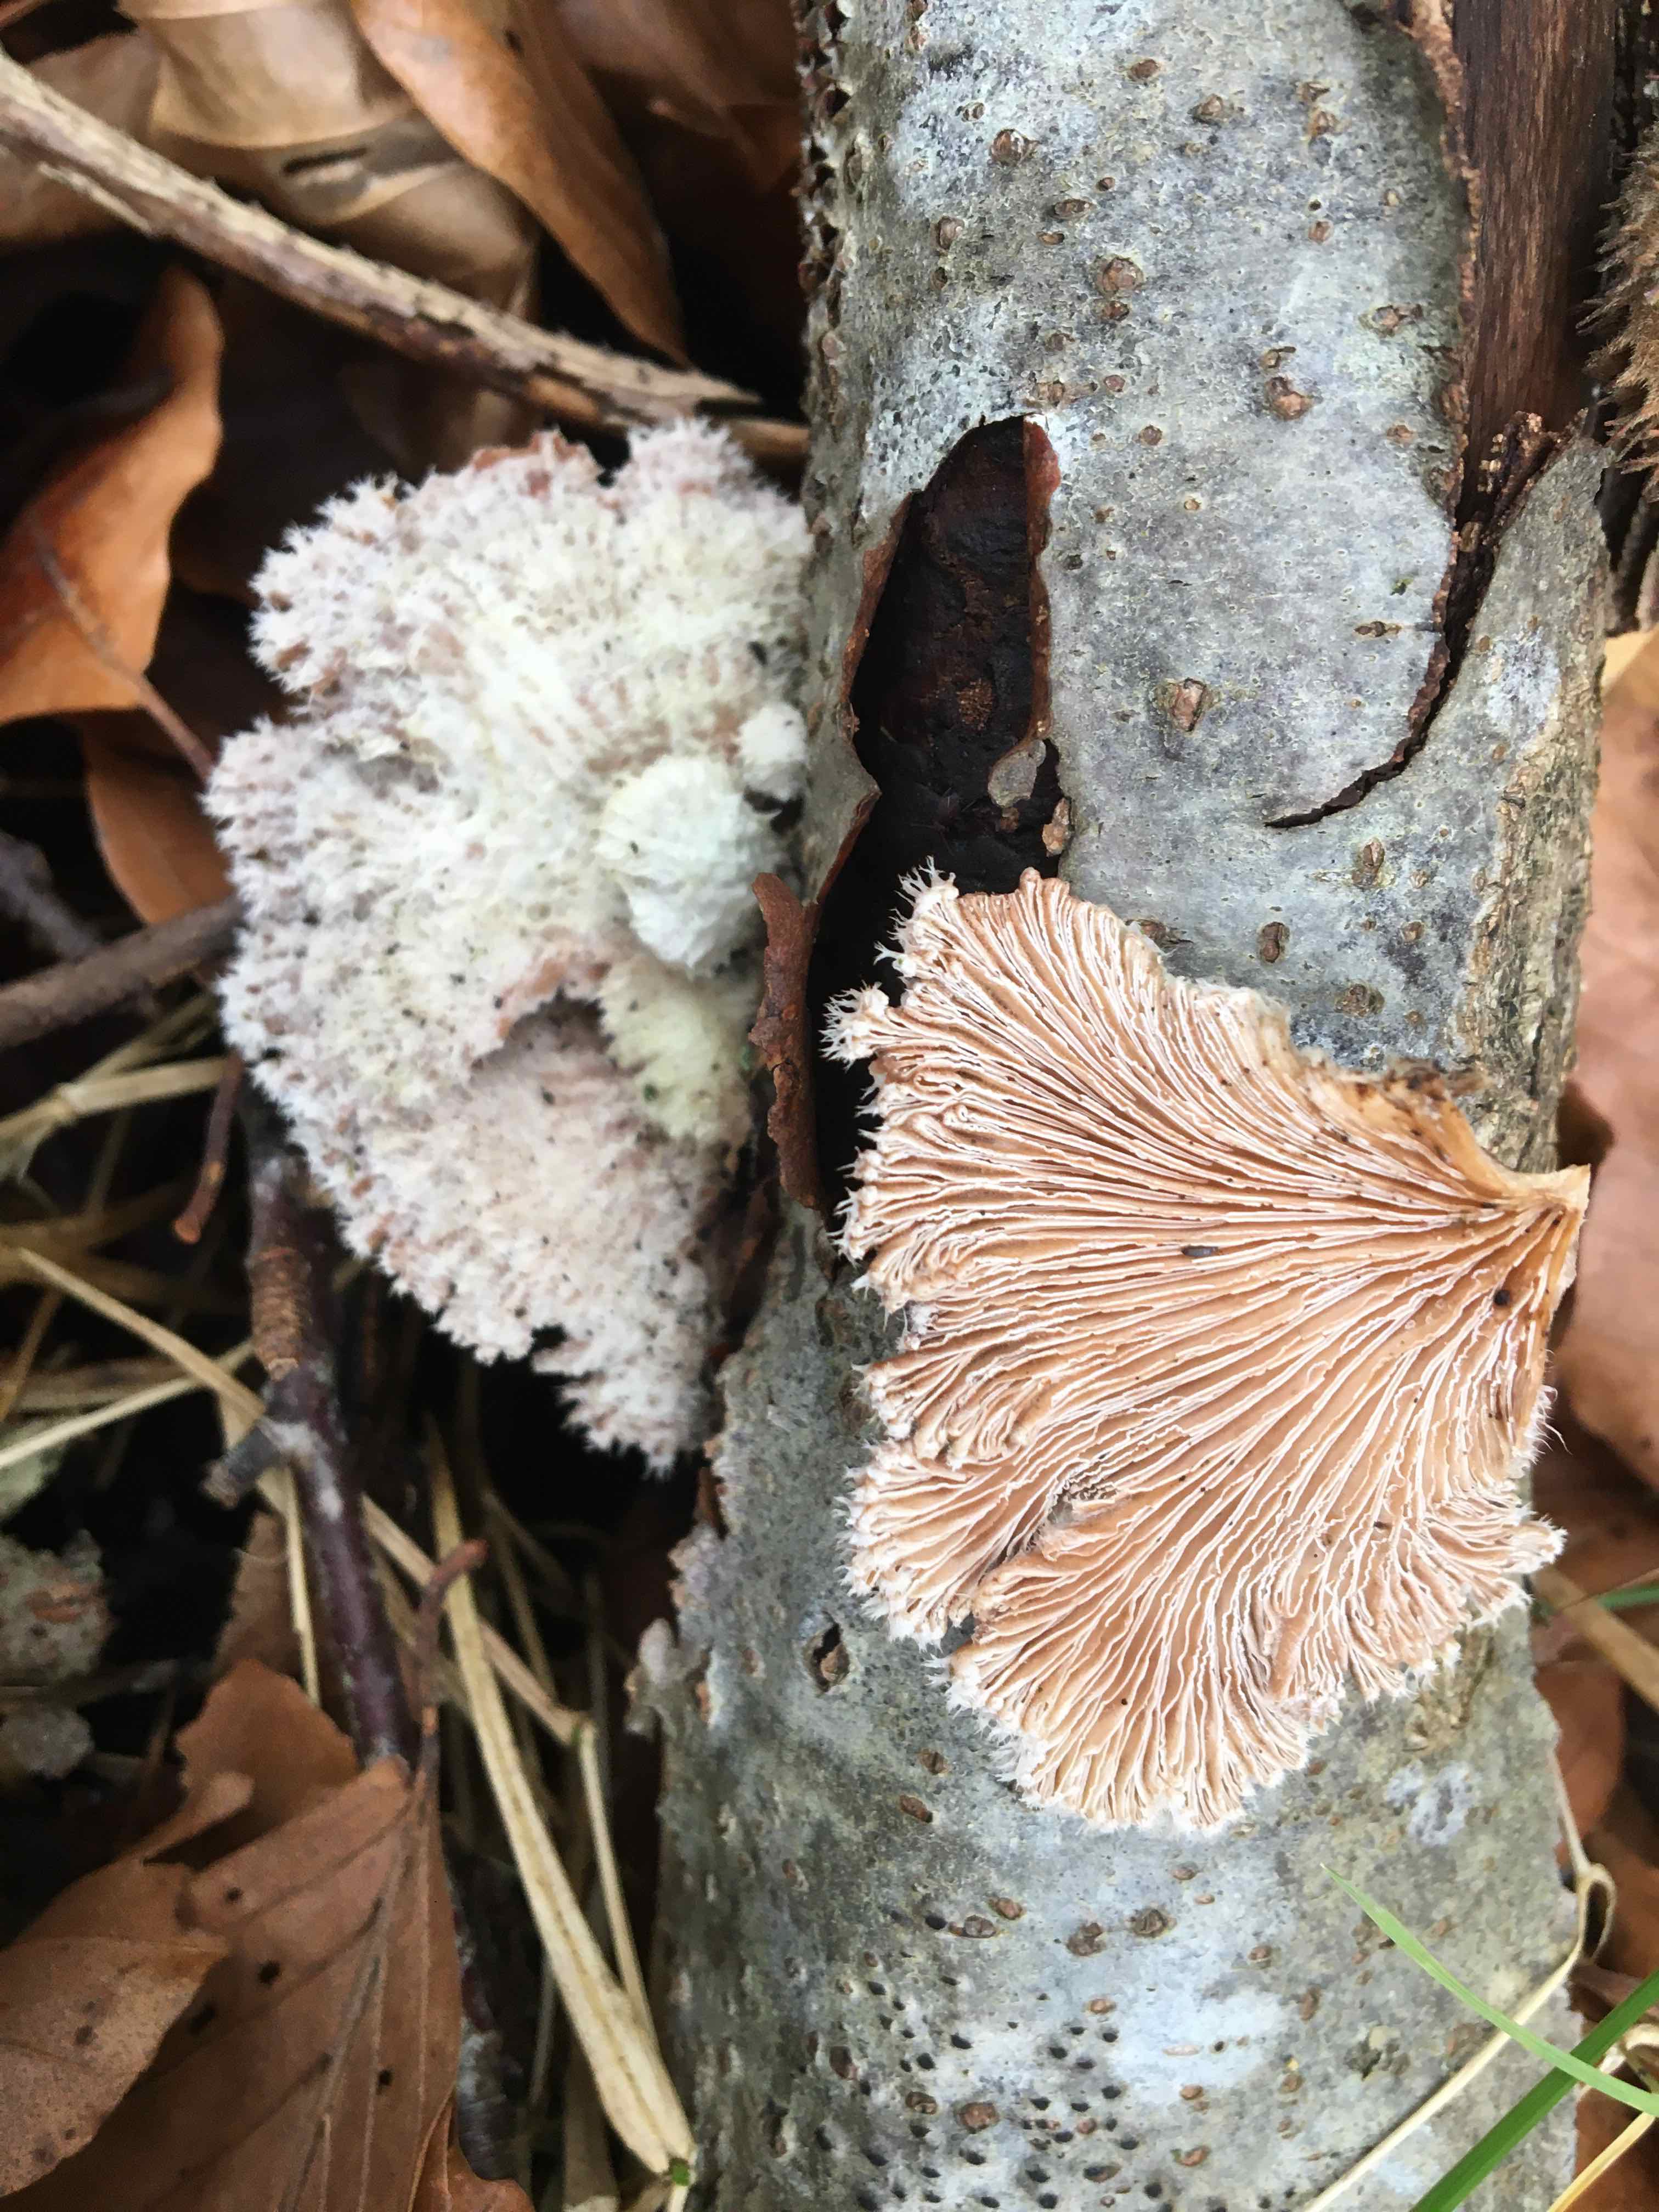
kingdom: Fungi
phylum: Basidiomycota
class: Agaricomycetes
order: Agaricales
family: Schizophyllaceae
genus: Schizophyllum
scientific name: Schizophyllum commune
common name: kløvblad
